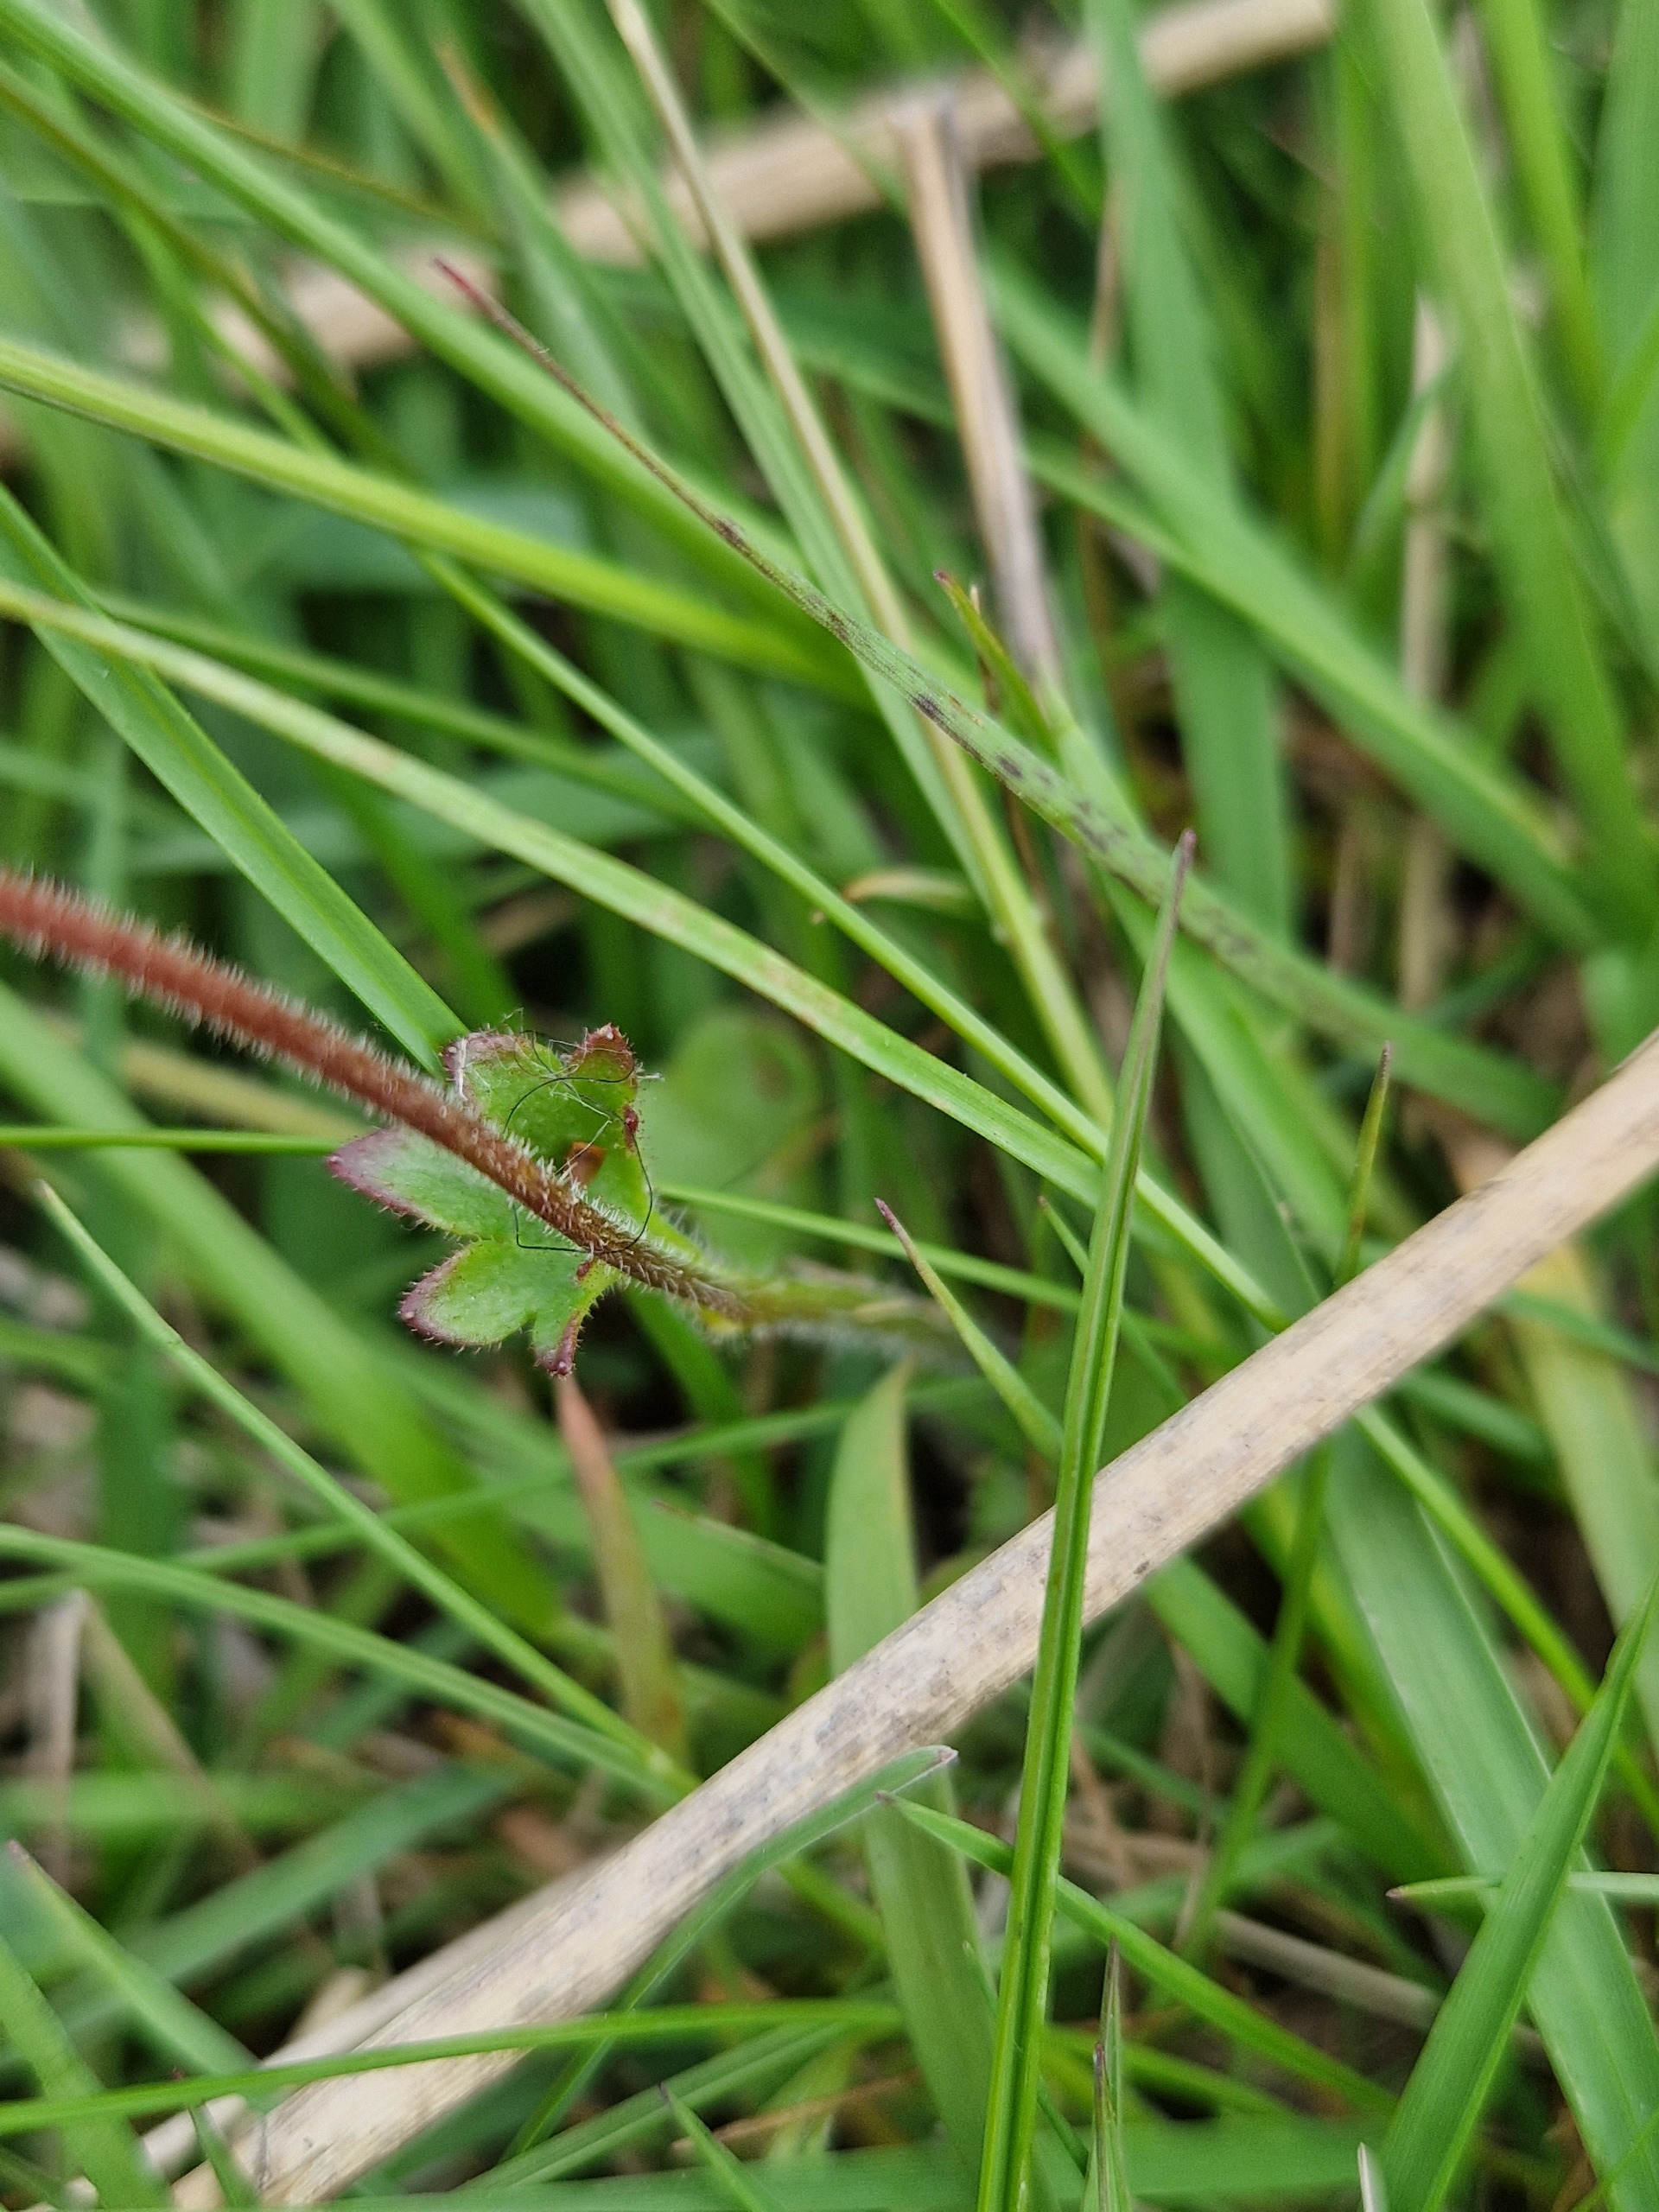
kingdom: Plantae
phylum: Tracheophyta
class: Magnoliopsida
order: Saxifragales
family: Saxifragaceae
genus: Saxifraga
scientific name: Saxifraga granulata
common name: Kornet stenbræk
